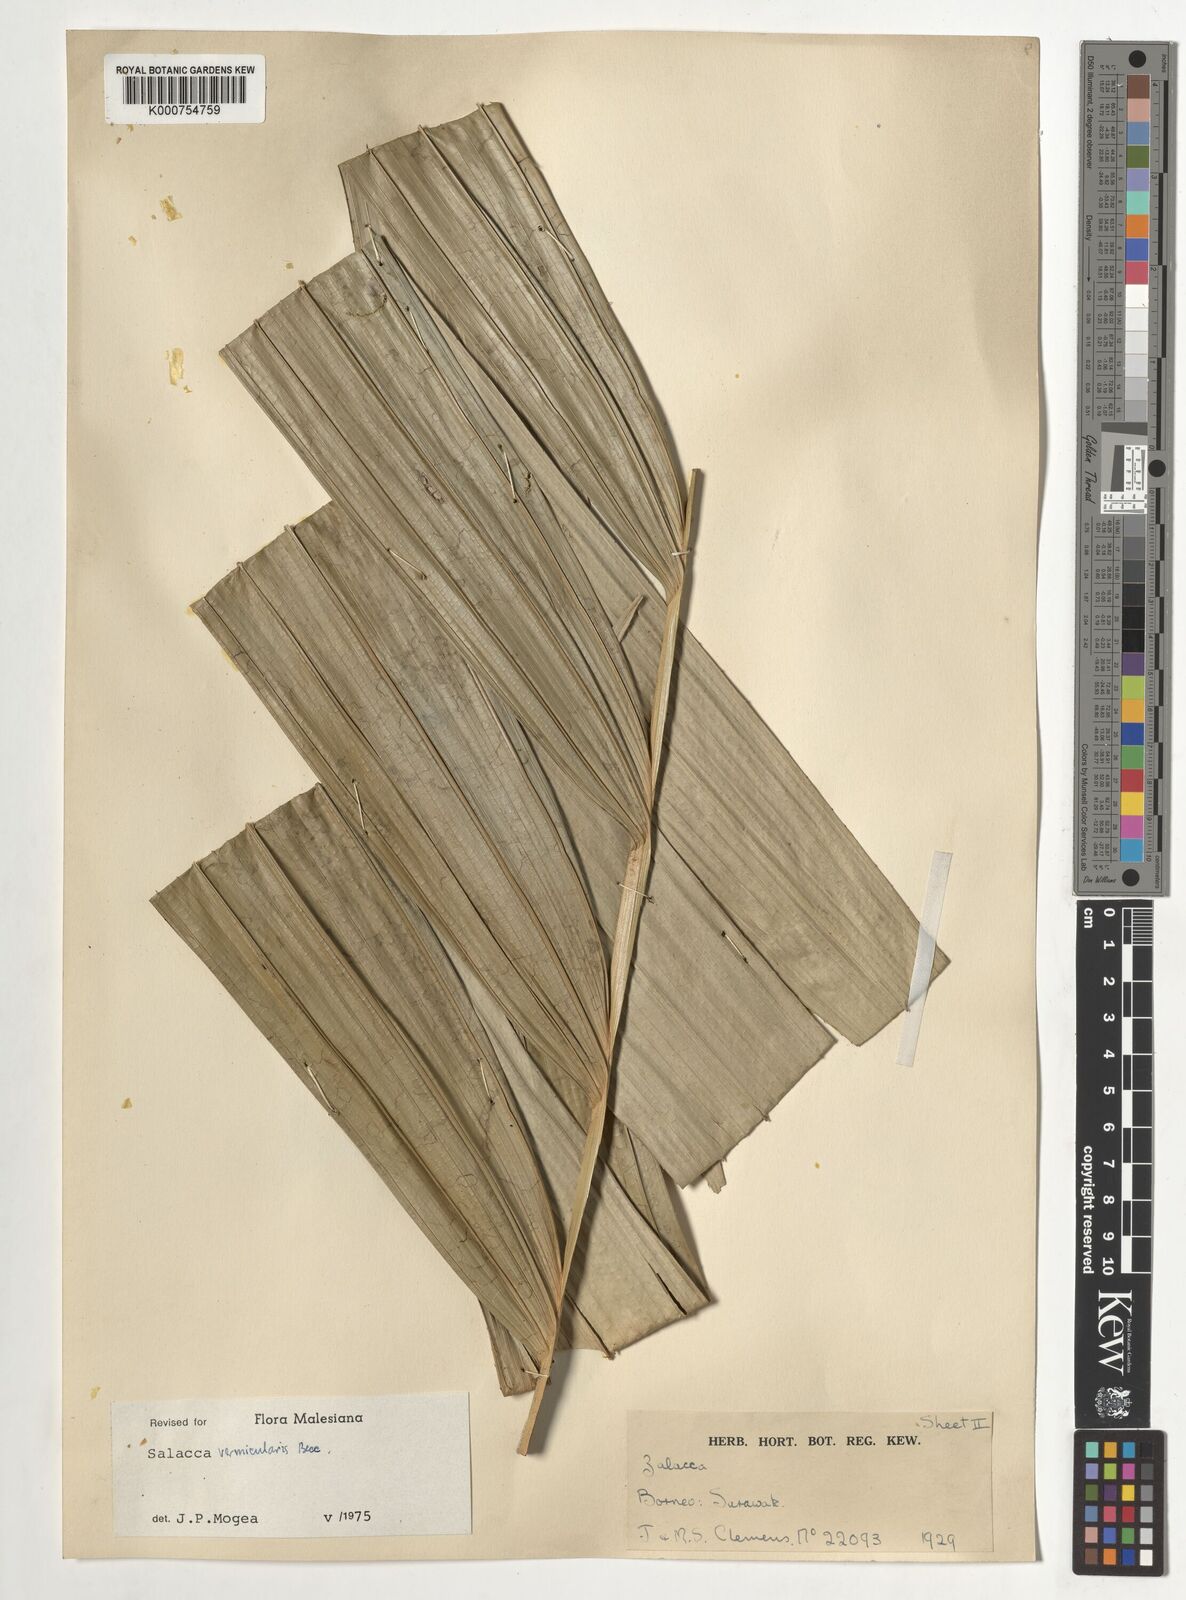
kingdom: Plantae
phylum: Tracheophyta
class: Liliopsida
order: Arecales
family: Arecaceae
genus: Salacca
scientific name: Salacca vermicularis
